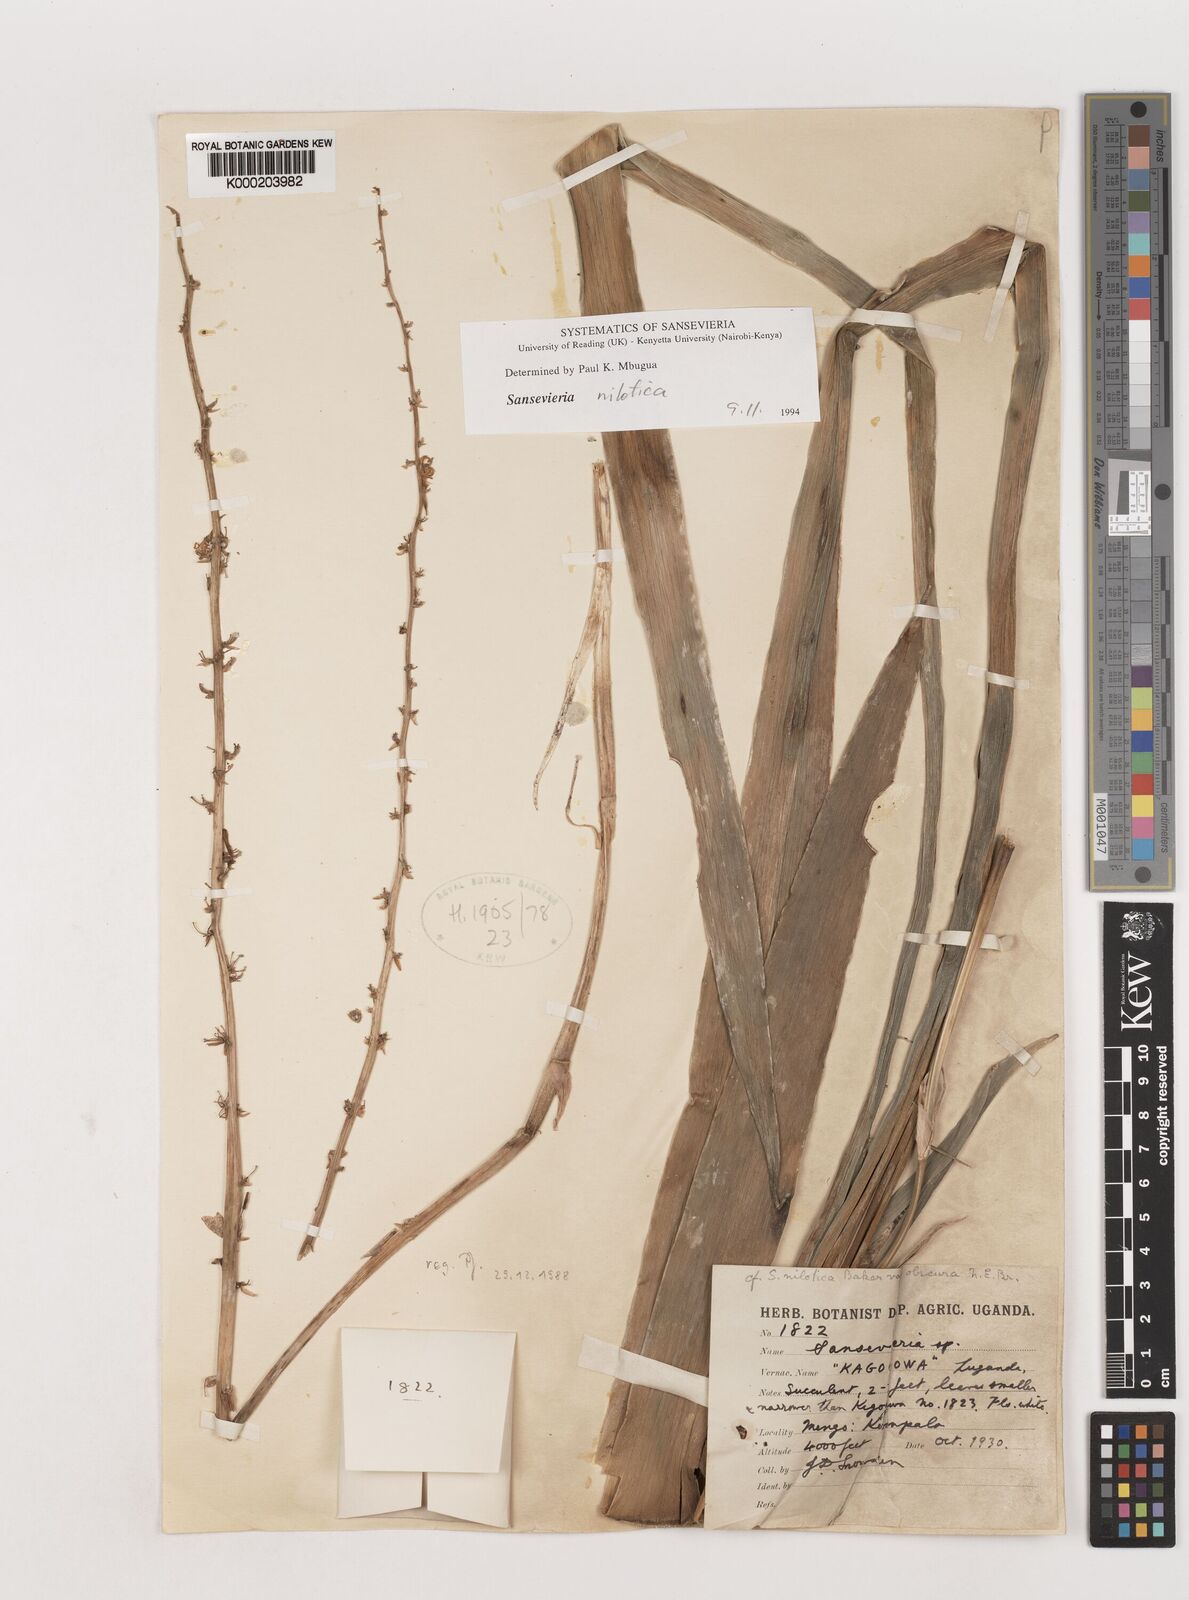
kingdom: Plantae
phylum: Tracheophyta
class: Liliopsida
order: Asparagales
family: Asparagaceae
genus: Dracaena
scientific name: Dracaena
